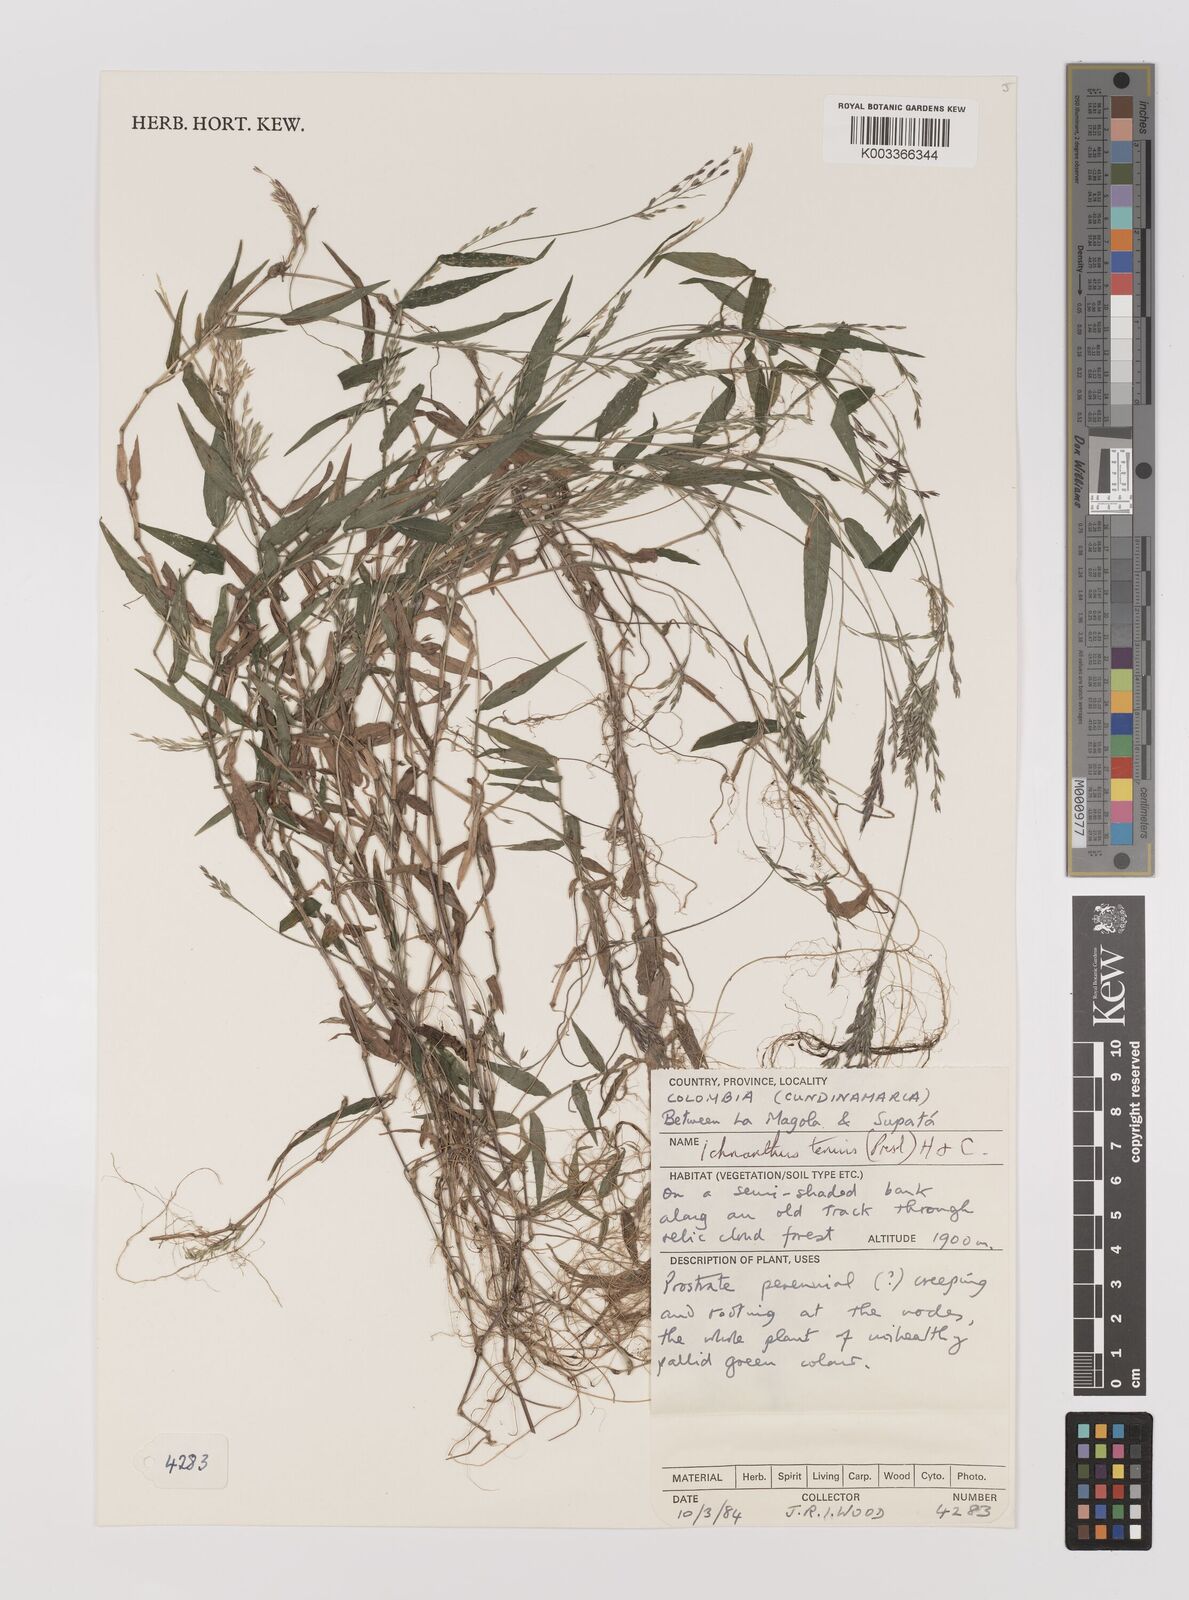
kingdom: Plantae
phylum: Tracheophyta
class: Liliopsida
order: Poales
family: Poaceae
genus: Ichnanthus
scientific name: Ichnanthus tenuis
